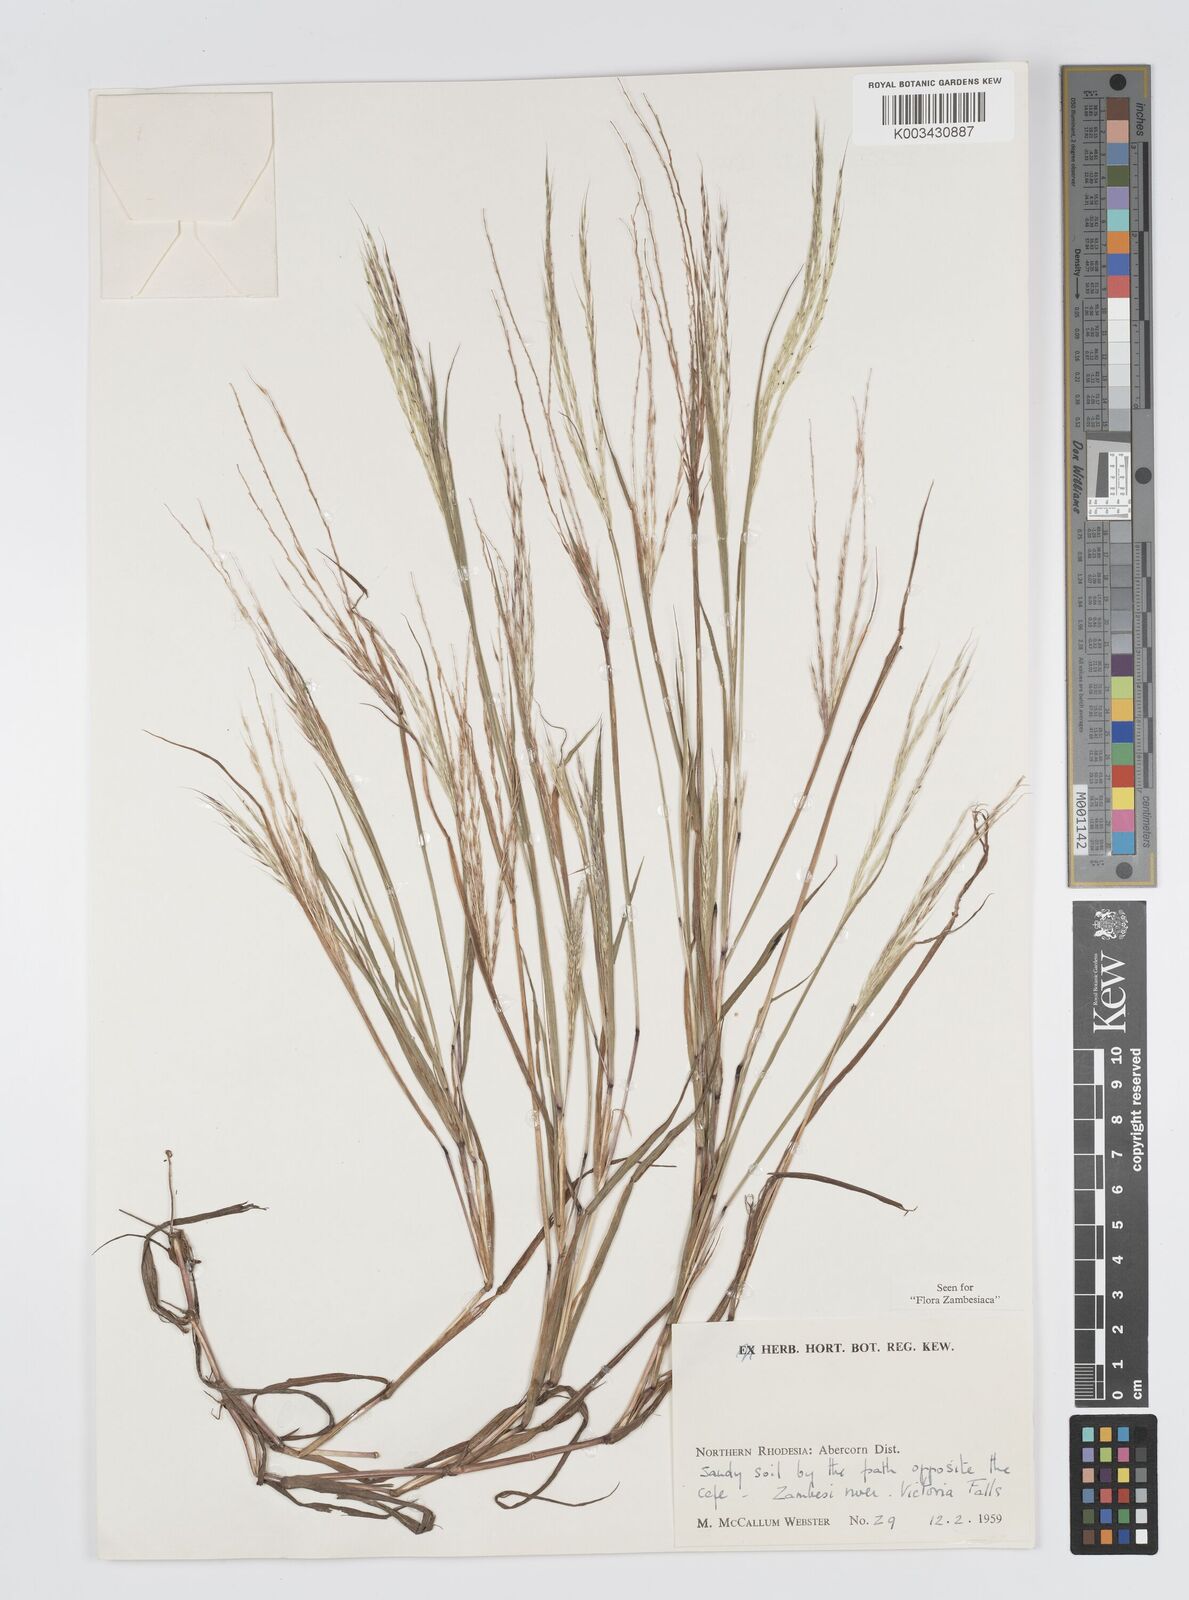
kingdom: Plantae
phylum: Tracheophyta
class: Liliopsida
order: Poales
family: Poaceae
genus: Digitaria
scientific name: Digitaria remotigluma
